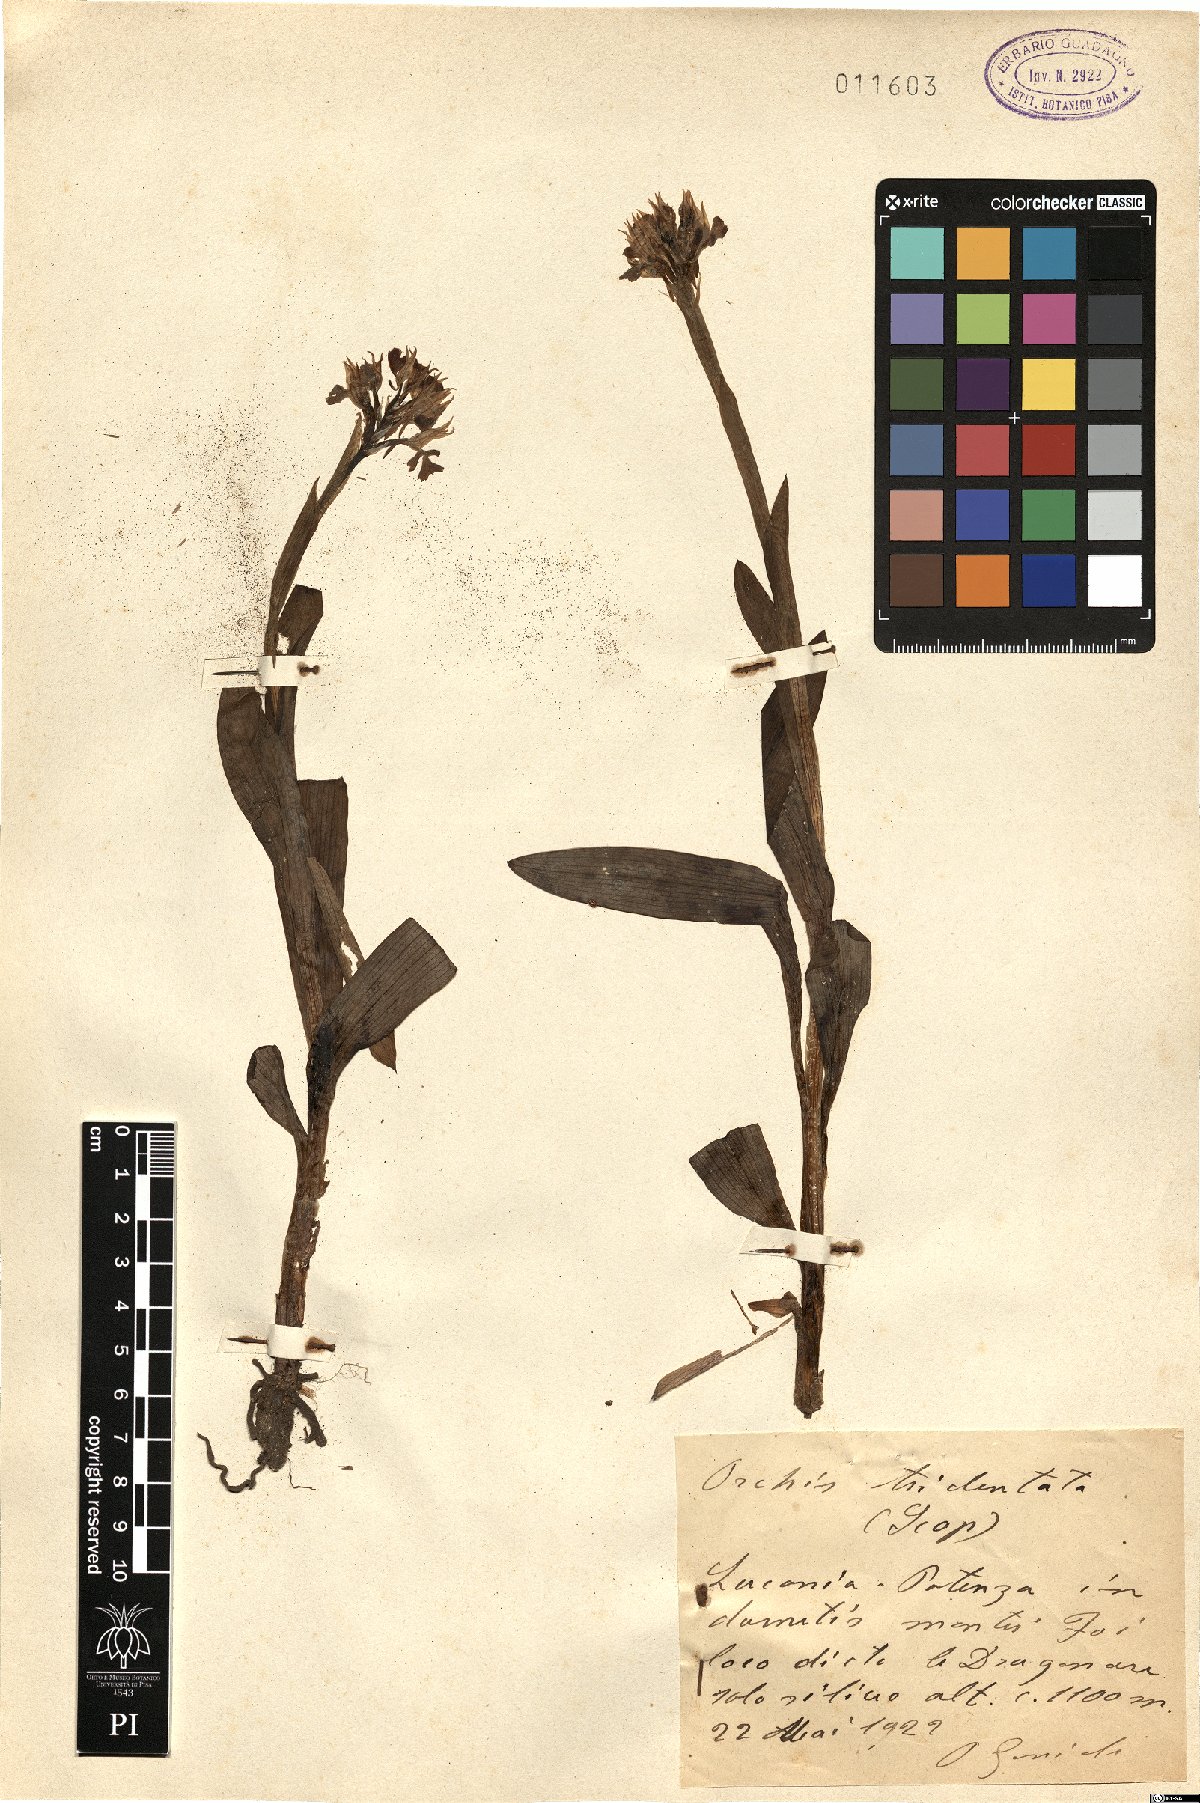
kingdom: Plantae
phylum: Tracheophyta
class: Liliopsida
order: Asparagales
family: Orchidaceae
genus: Neotinea
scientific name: Neotinea tridentata
